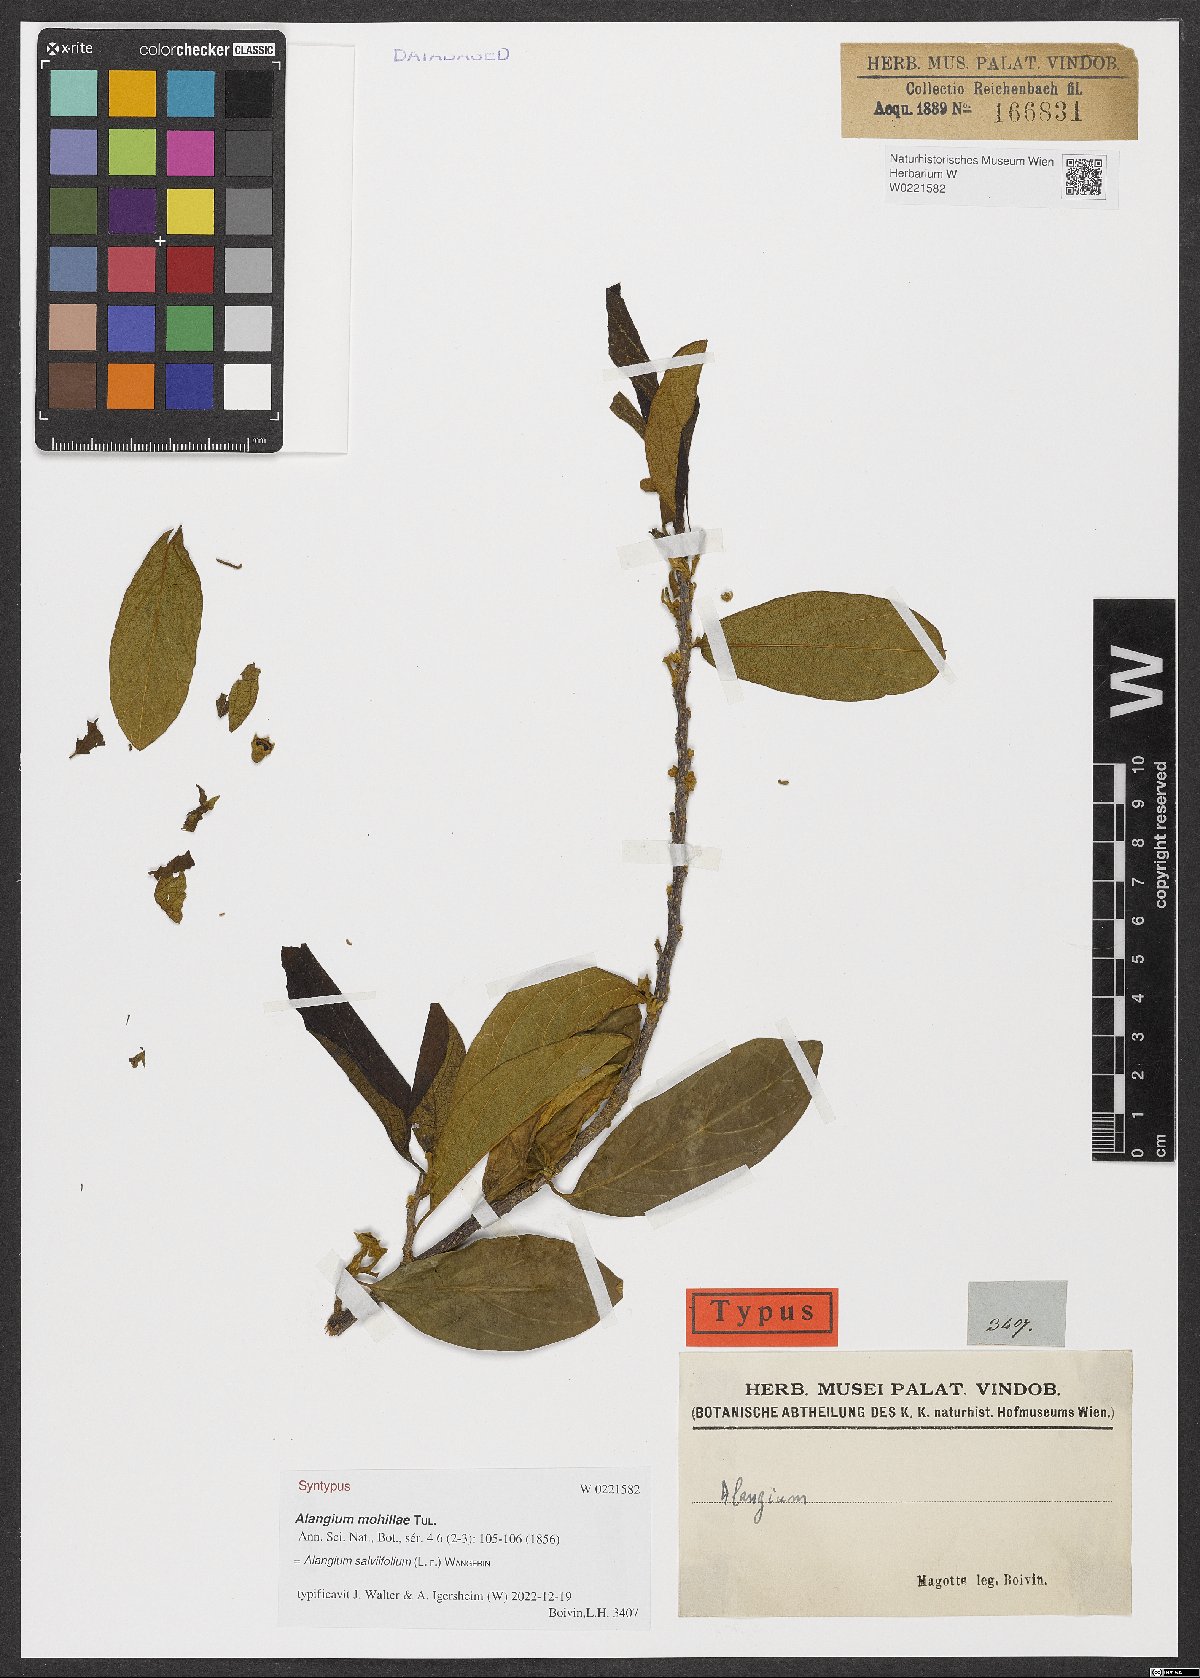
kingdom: Plantae
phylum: Tracheophyta
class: Magnoliopsida
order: Cornales
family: Cornaceae
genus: Alangium
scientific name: Alangium salviifolium
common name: Sage-leaf alangium
